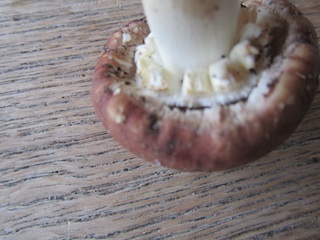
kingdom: Fungi
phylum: Basidiomycota
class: Agaricomycetes
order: Agaricales
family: Strophariaceae
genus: Stropharia
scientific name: Stropharia rugosoannulata
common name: rødbrun bredblad
